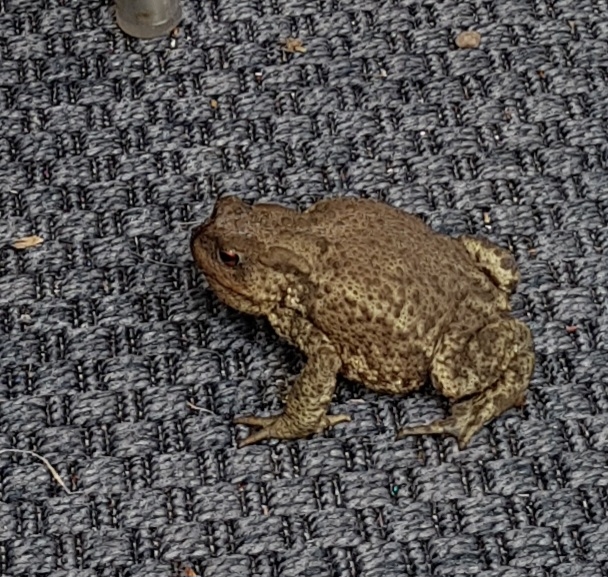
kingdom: Animalia
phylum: Chordata
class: Amphibia
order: Anura
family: Bufonidae
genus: Bufo
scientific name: Bufo bufo
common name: Skrubtudse
